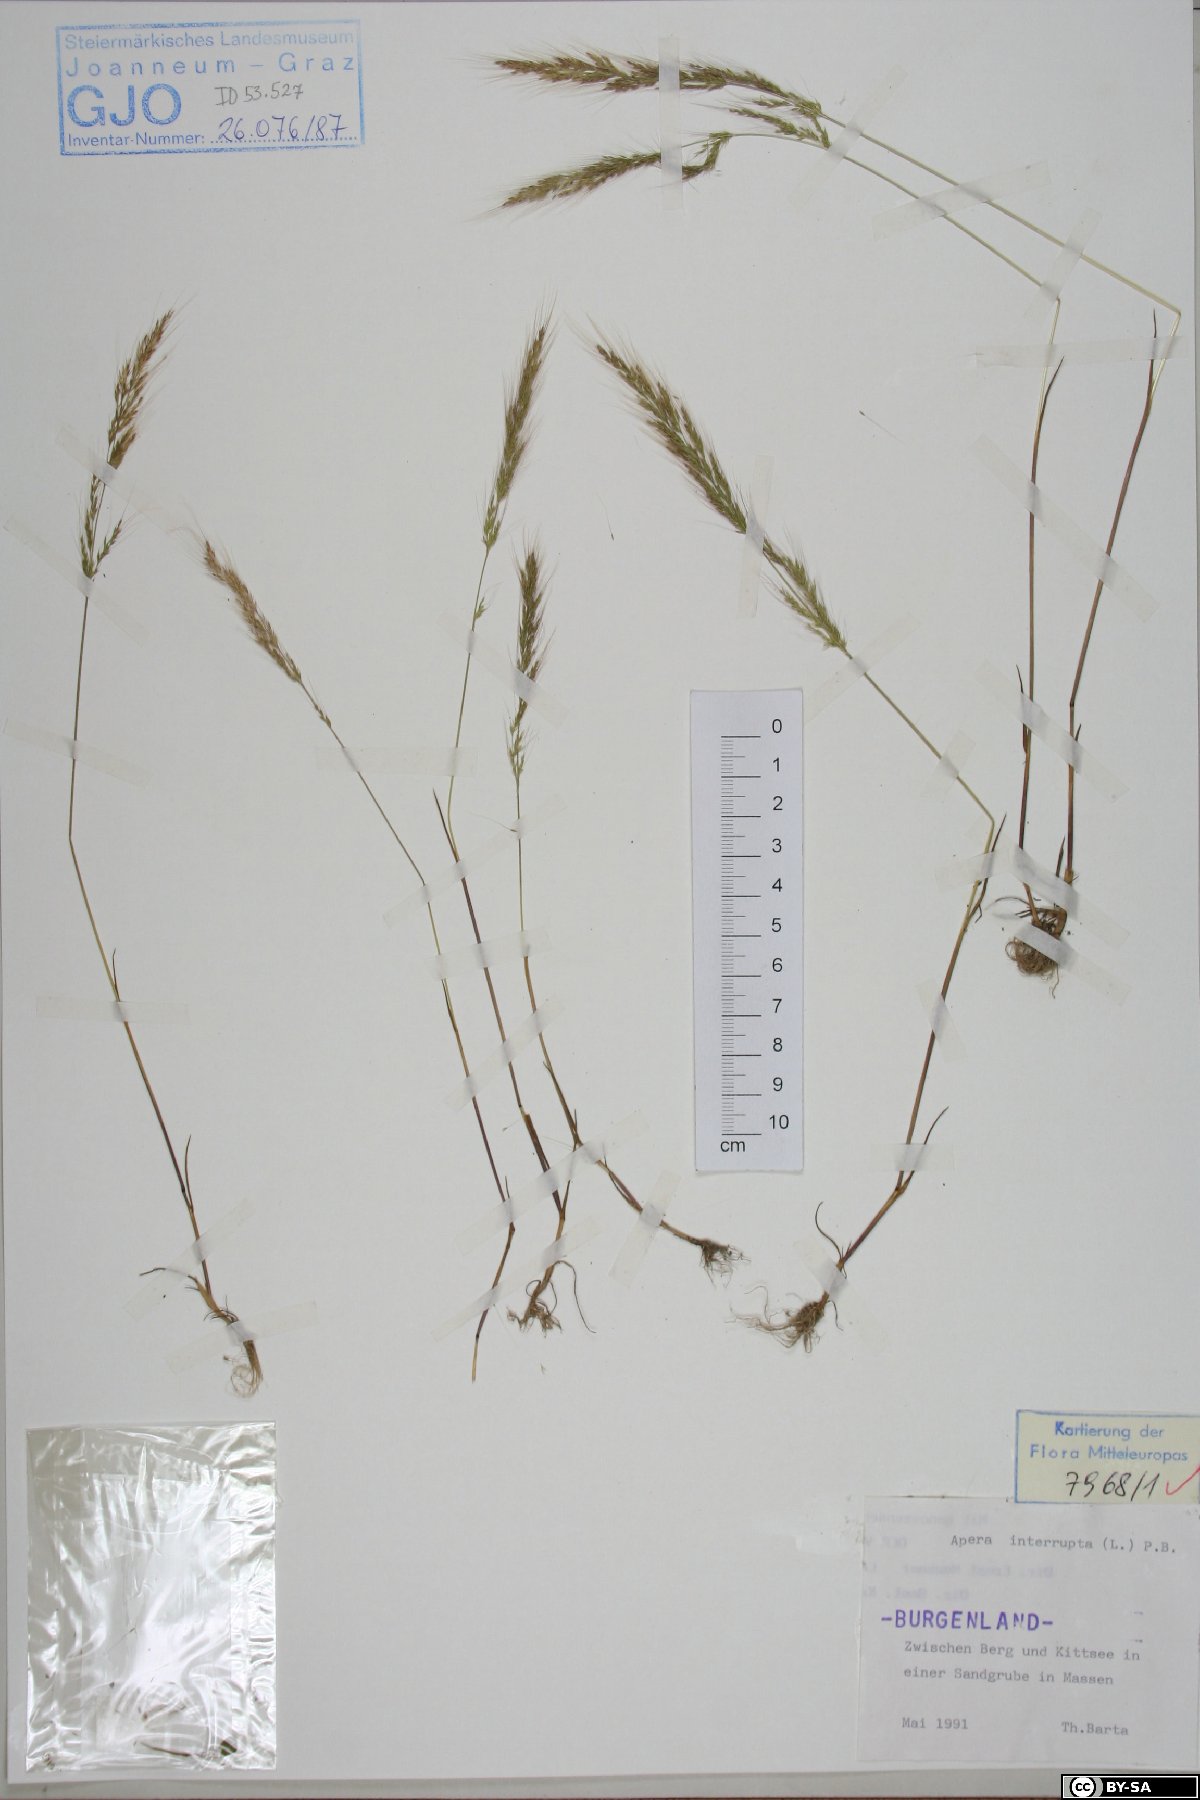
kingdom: Plantae
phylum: Tracheophyta
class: Liliopsida
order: Poales
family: Poaceae
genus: Apera
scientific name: Apera interrupta
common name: Dense silky-bent
